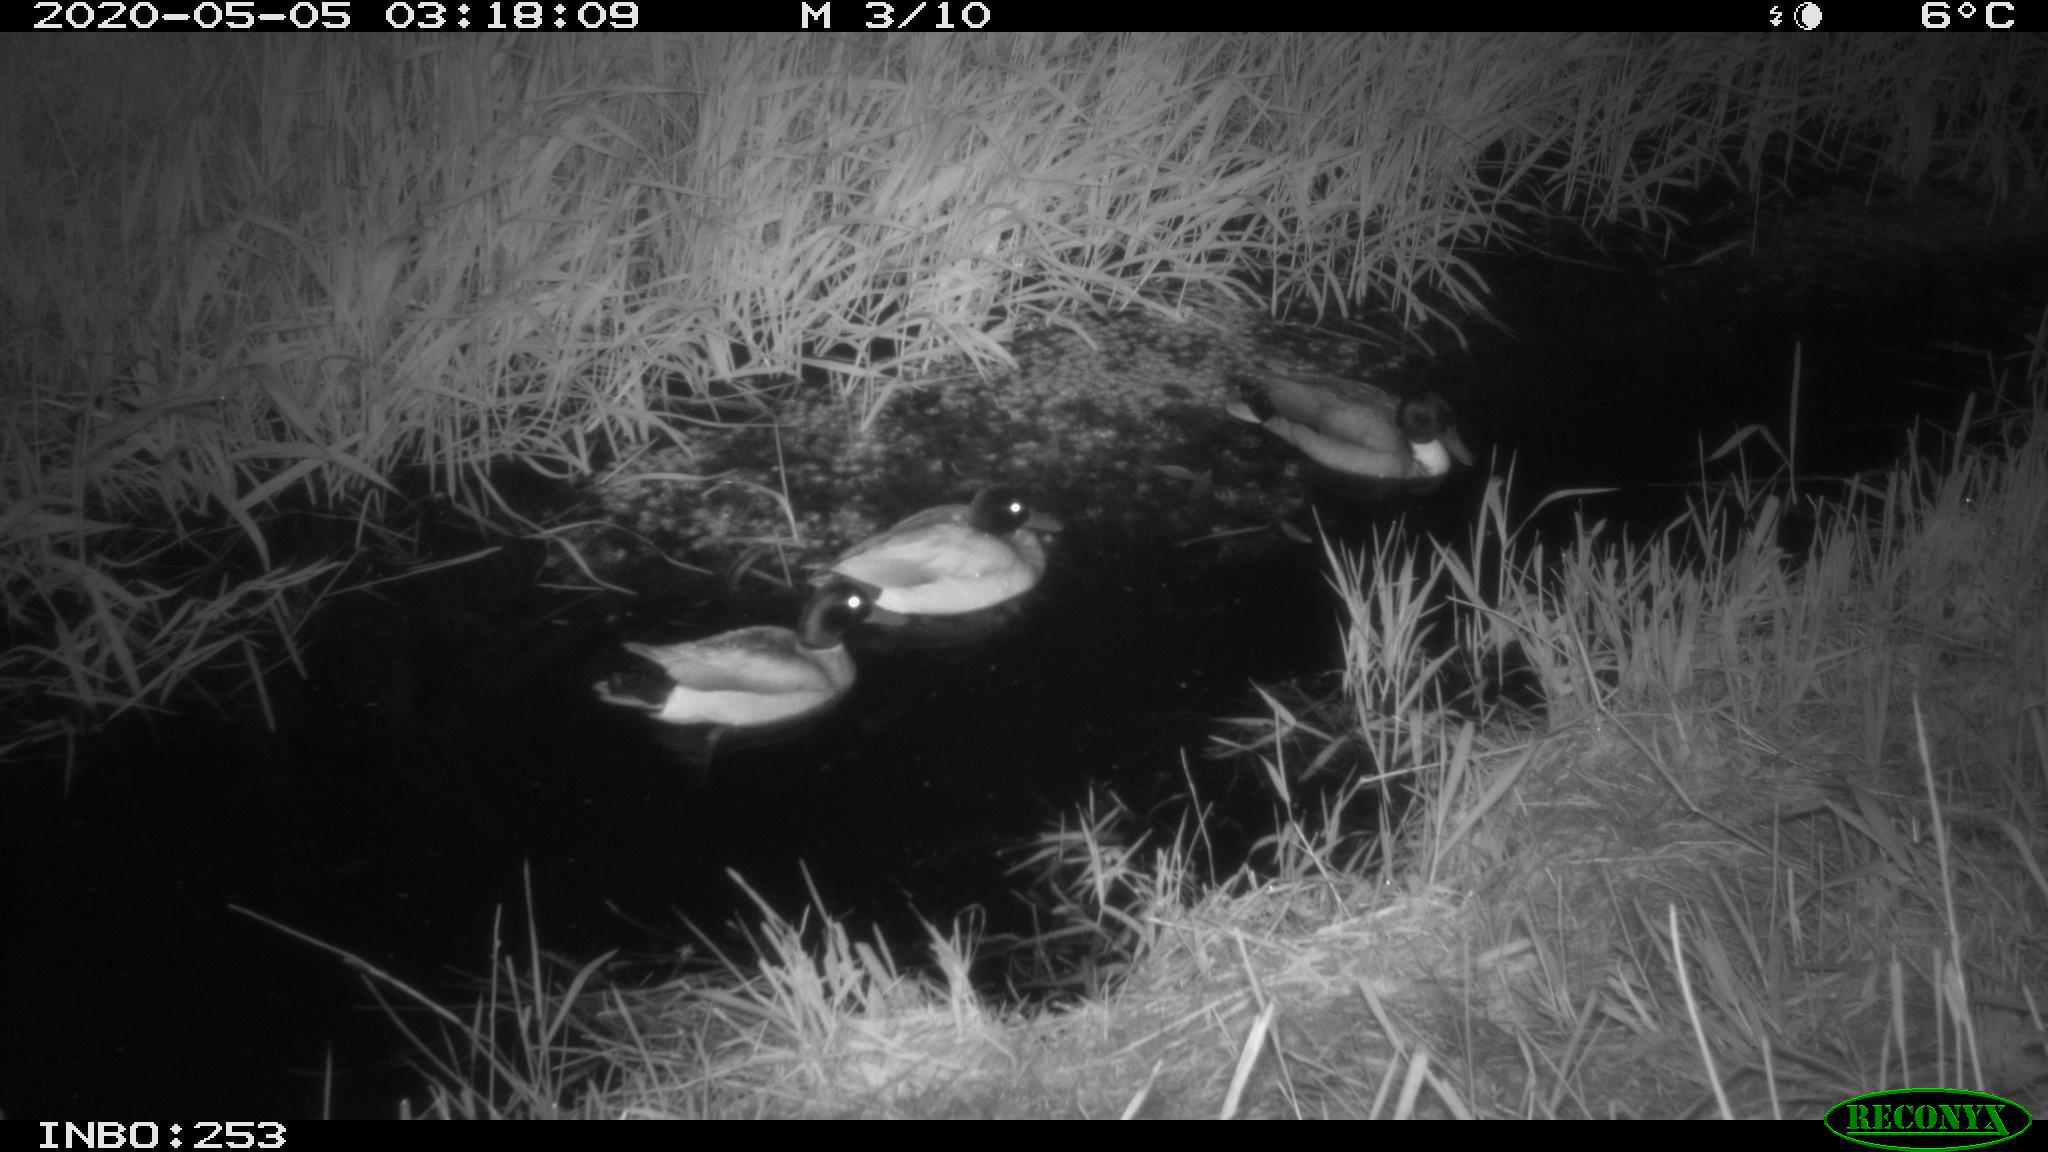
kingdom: Animalia
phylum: Chordata
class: Aves
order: Anseriformes
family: Anatidae
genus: Anas
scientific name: Anas platyrhynchos
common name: Mallard
